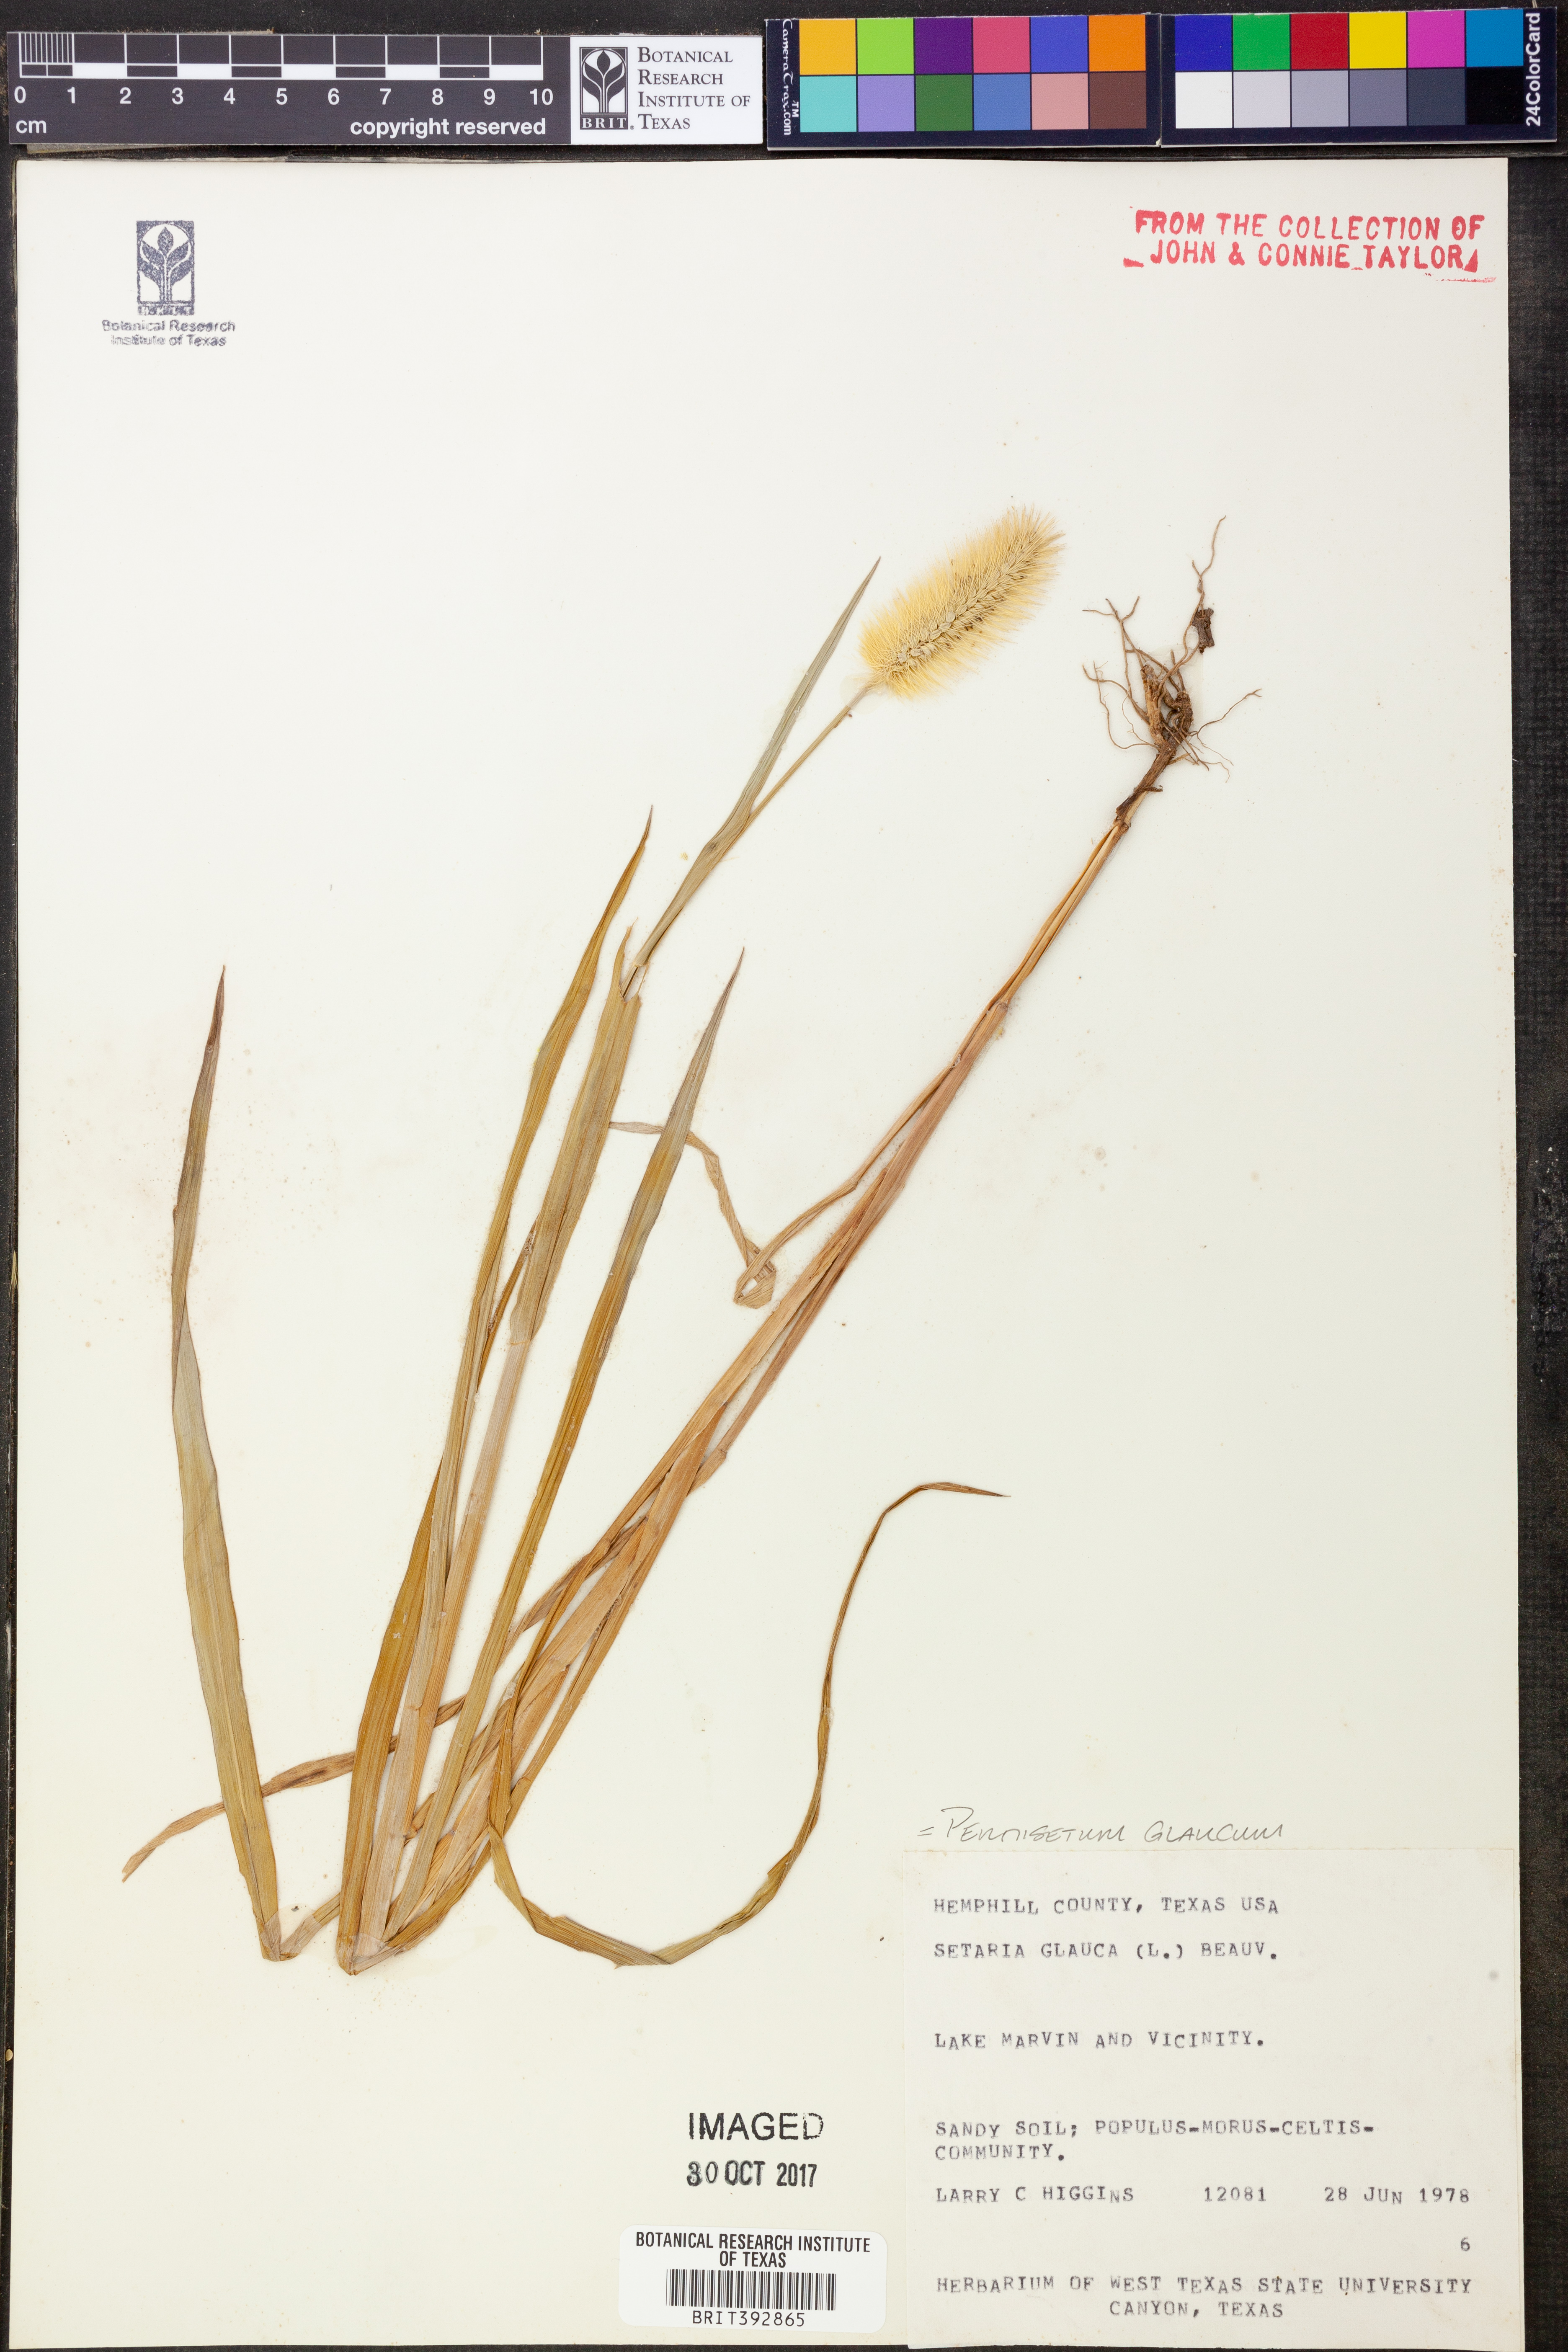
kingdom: Plantae
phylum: Tracheophyta
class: Liliopsida
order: Poales
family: Poaceae
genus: Cenchrus
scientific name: Cenchrus americanus
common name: Pearl millet
